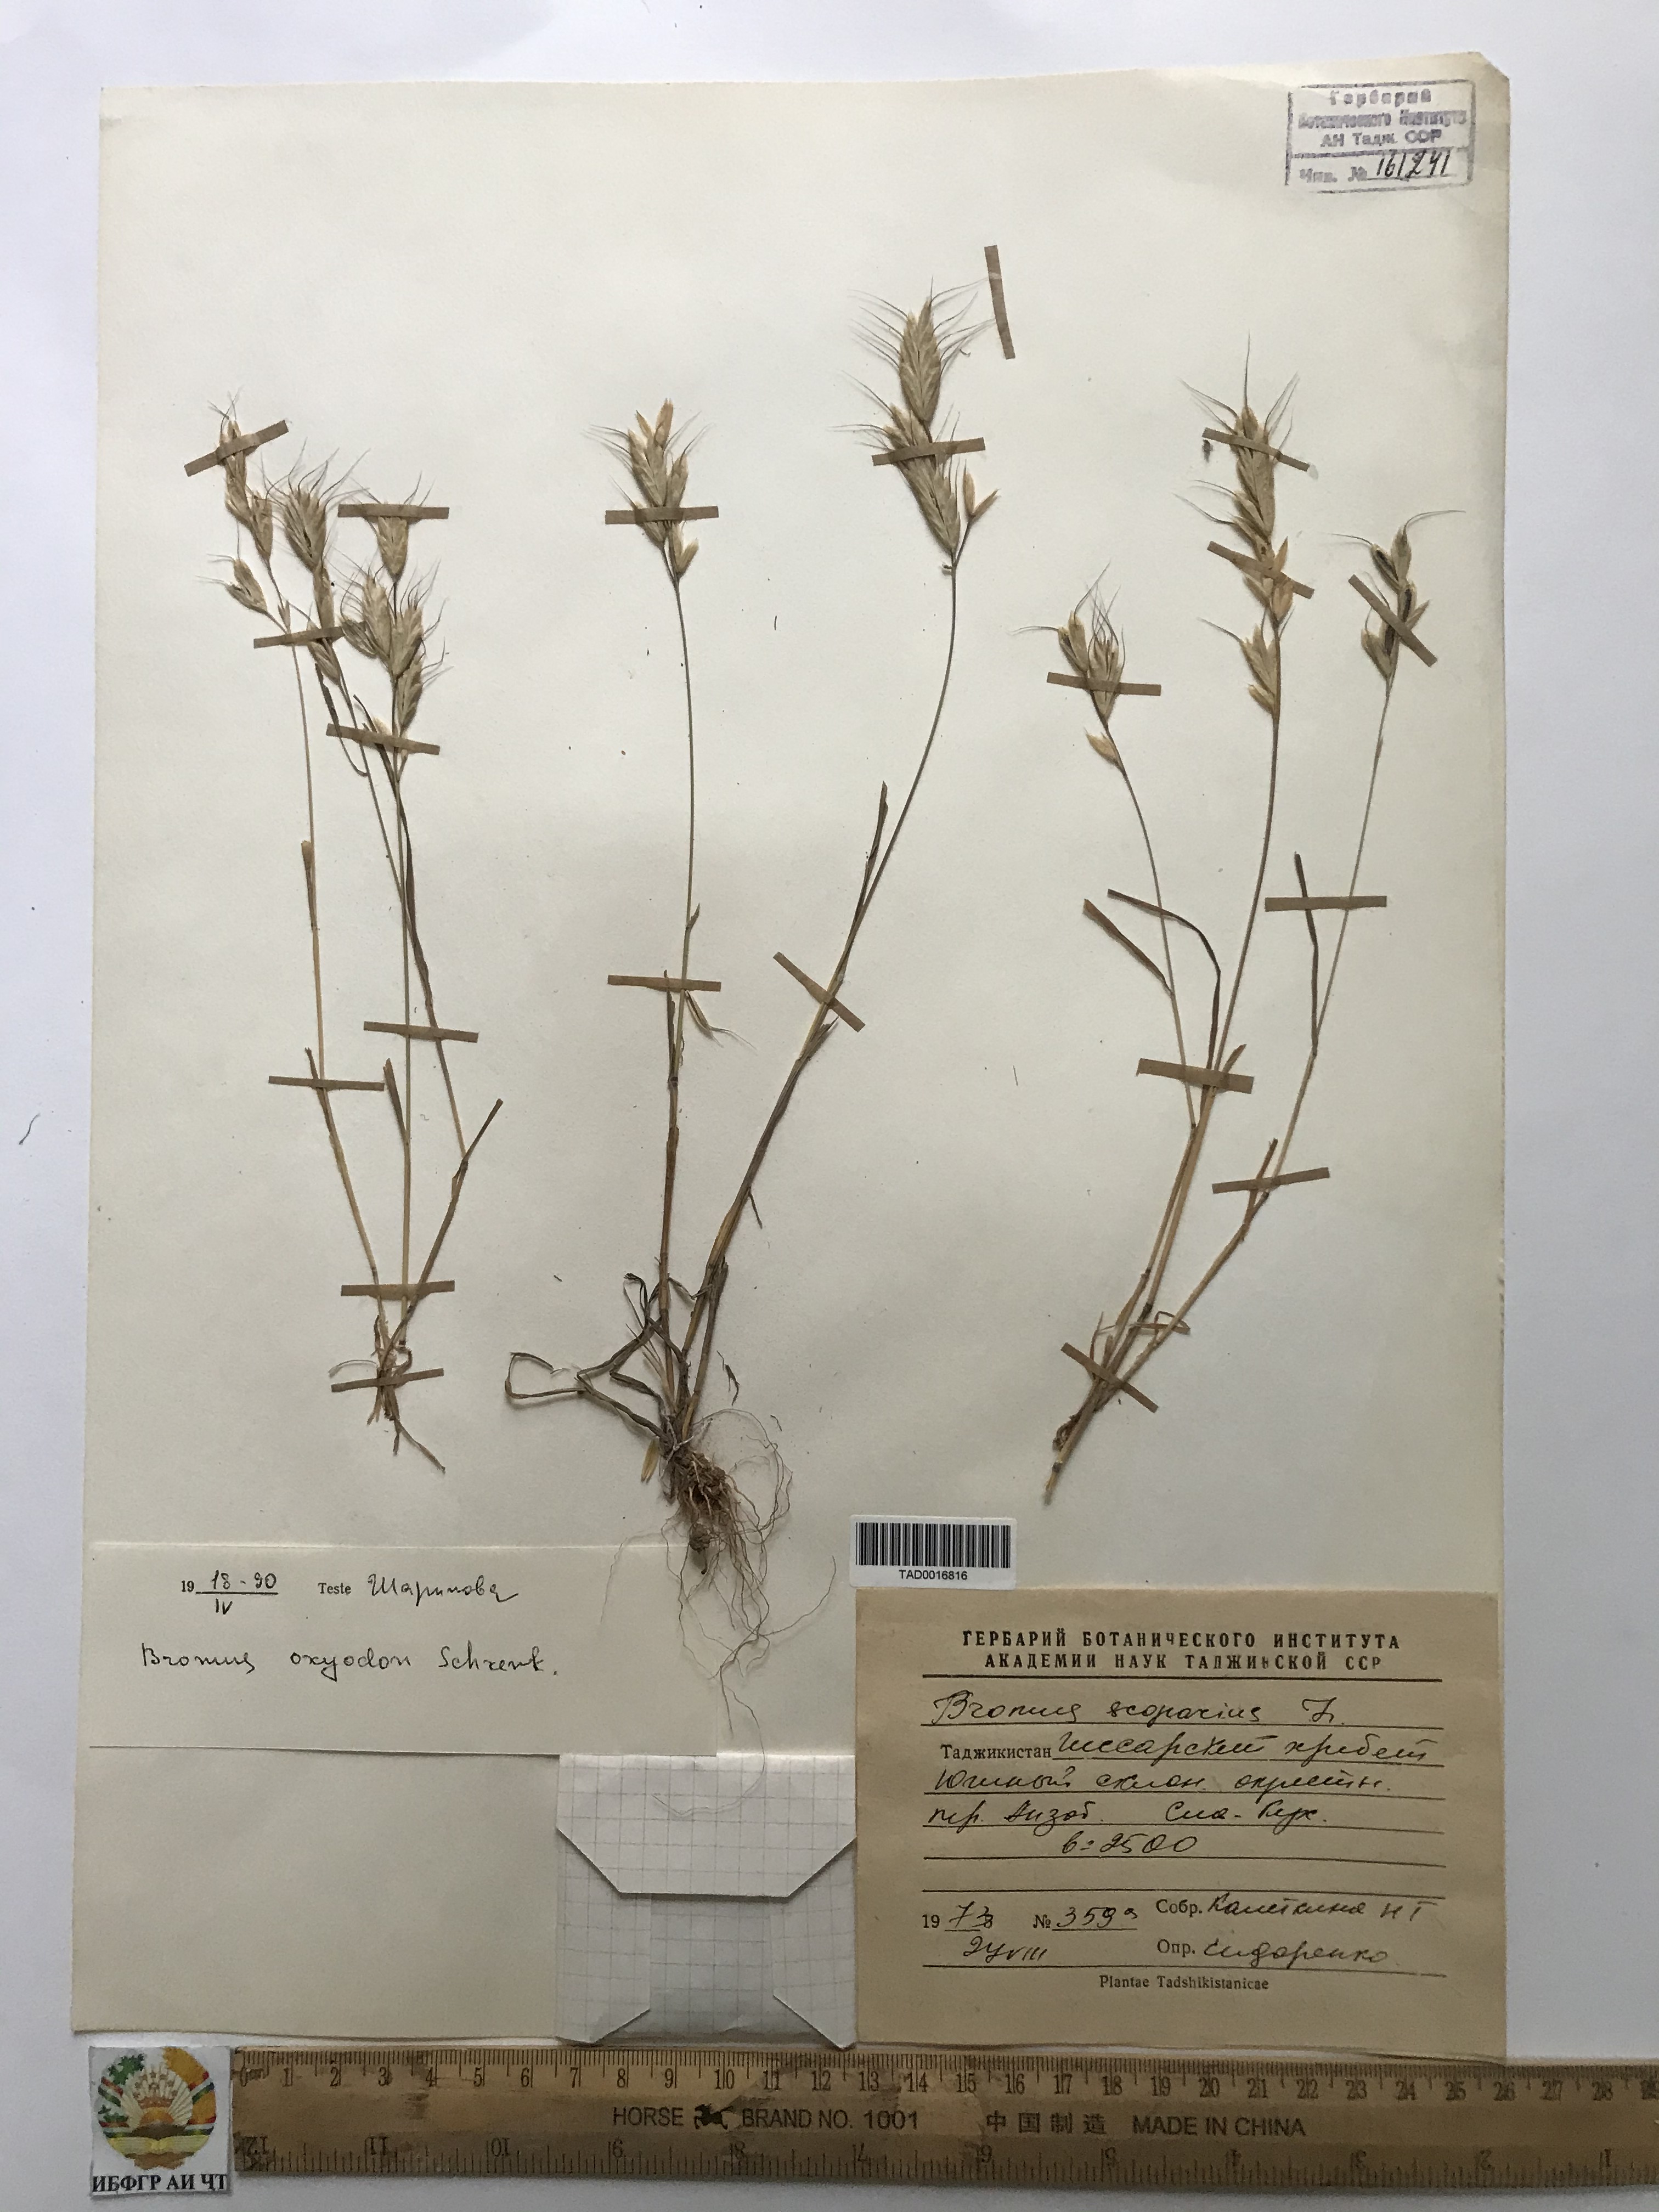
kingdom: Plantae
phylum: Tracheophyta
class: Liliopsida
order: Poales
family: Poaceae
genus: Bromus
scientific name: Bromus oxyodon
